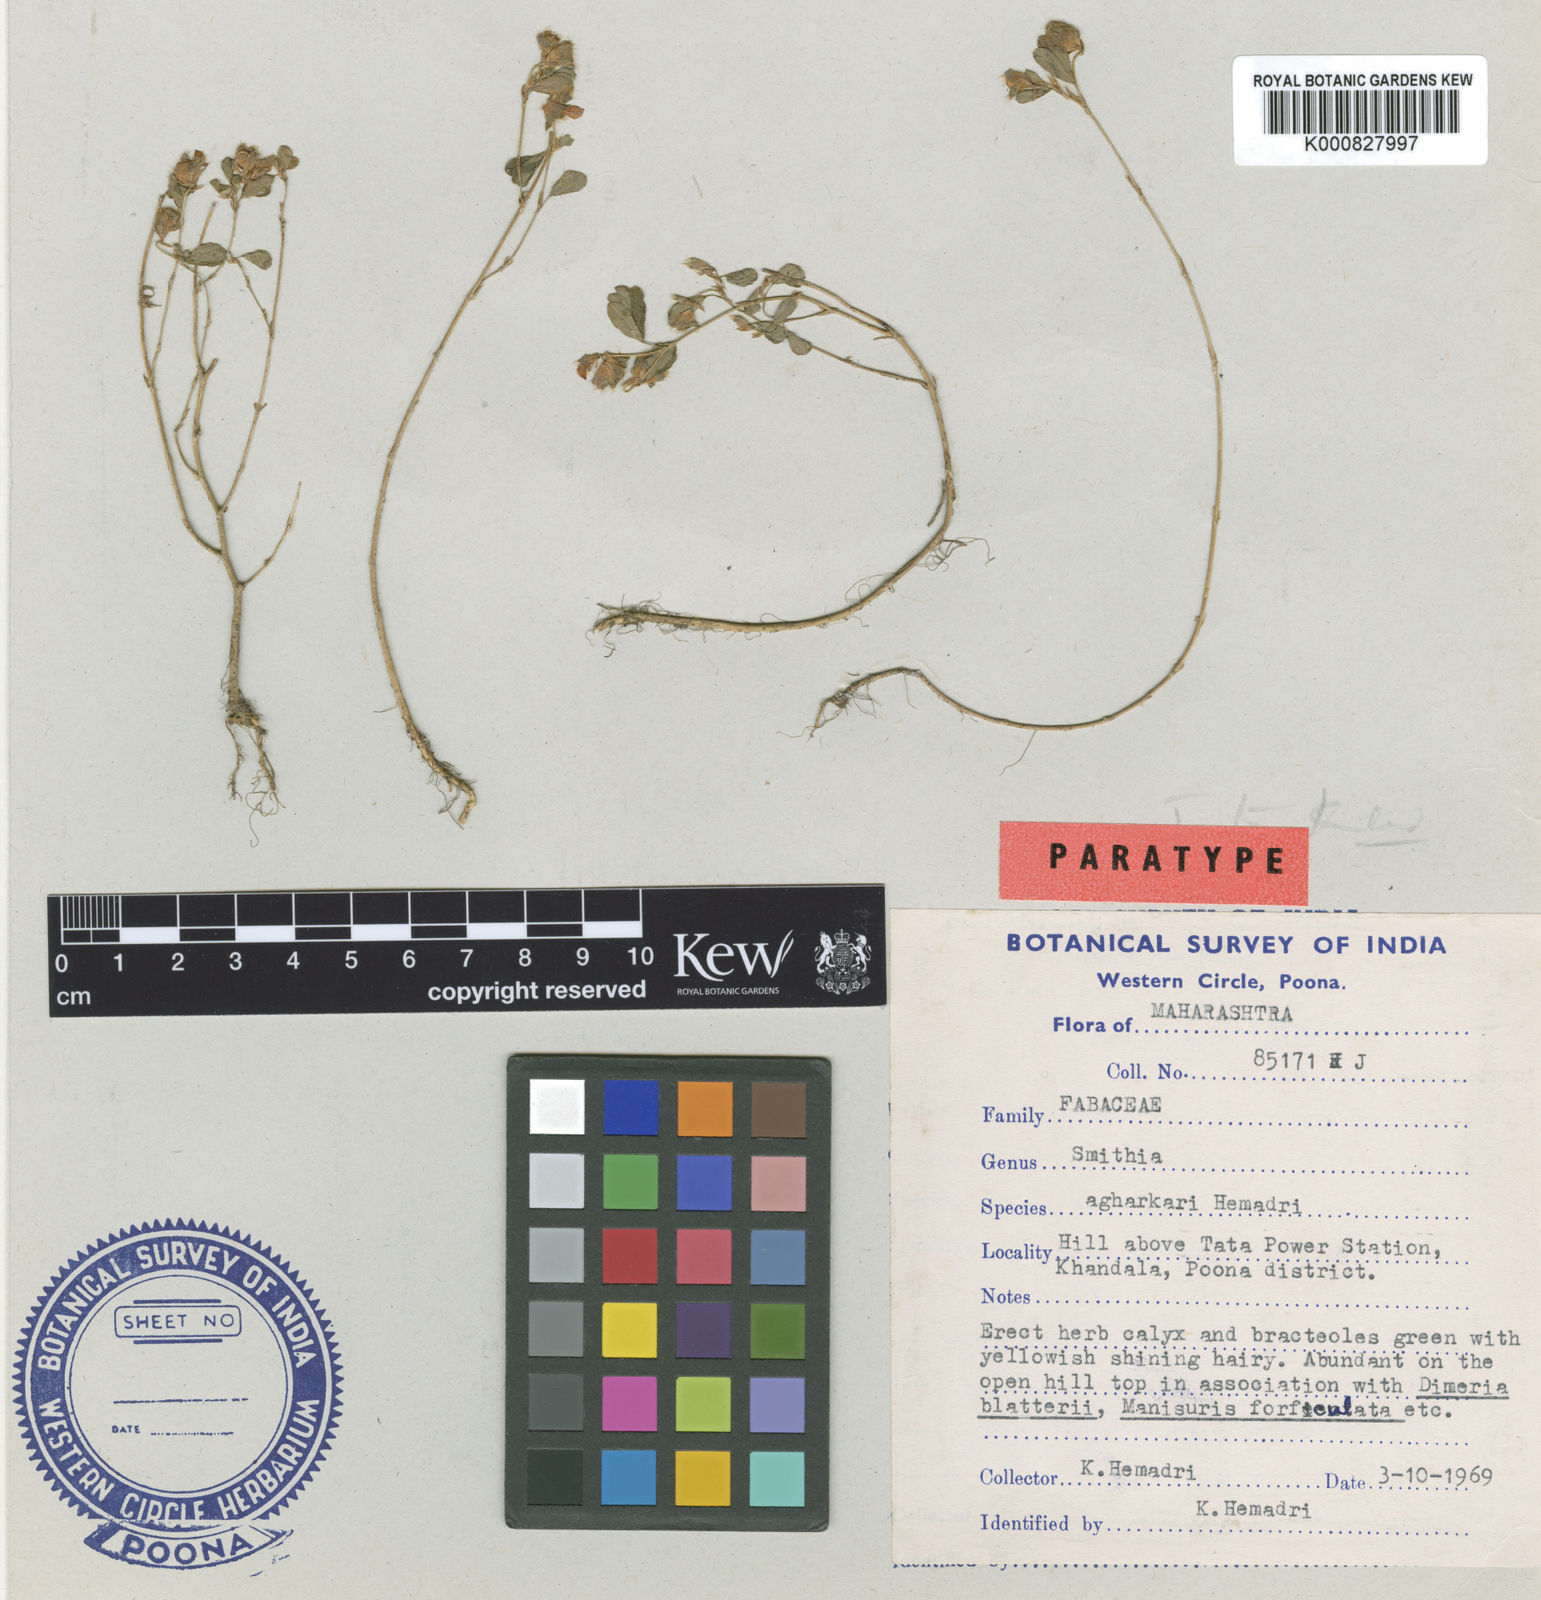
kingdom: Plantae
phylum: Tracheophyta
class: Magnoliopsida
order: Fabales
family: Fabaceae
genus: Smithia
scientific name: Smithia bigemina
